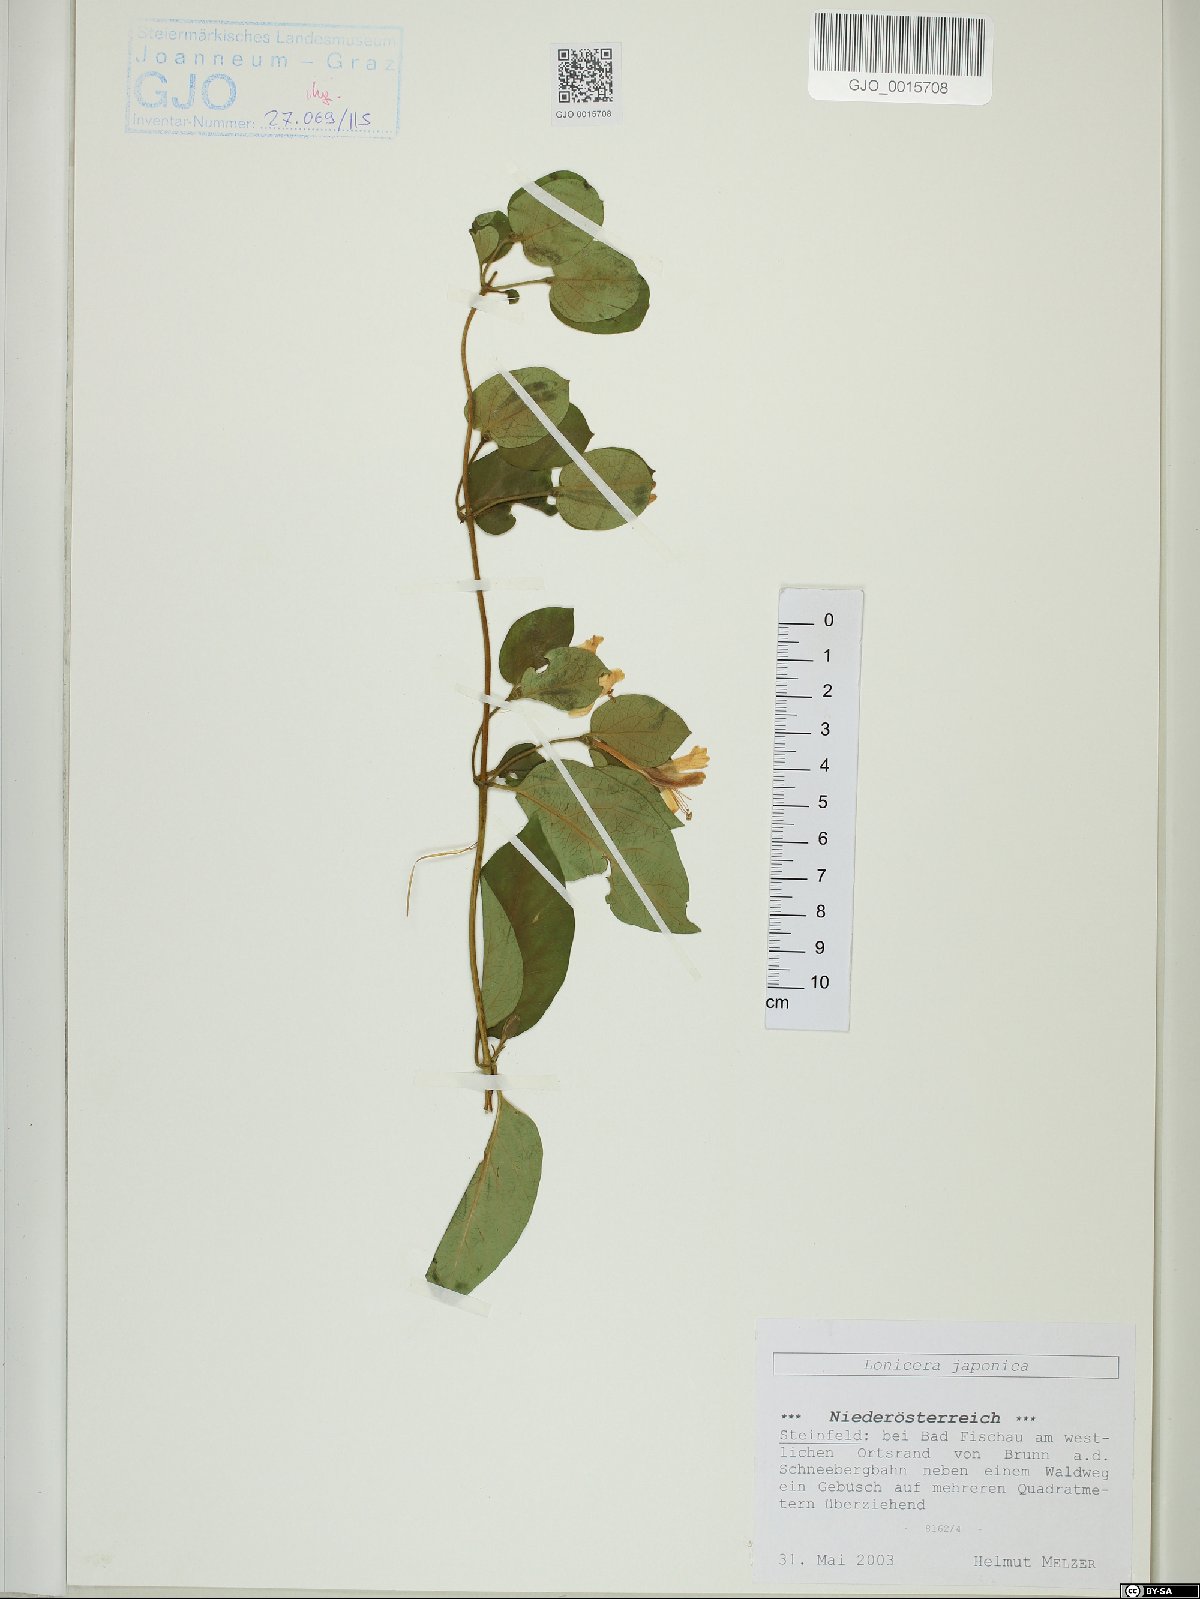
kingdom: Plantae
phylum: Tracheophyta
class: Magnoliopsida
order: Dipsacales
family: Caprifoliaceae
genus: Lonicera
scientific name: Lonicera japonica
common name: Japanese honeysuckle
